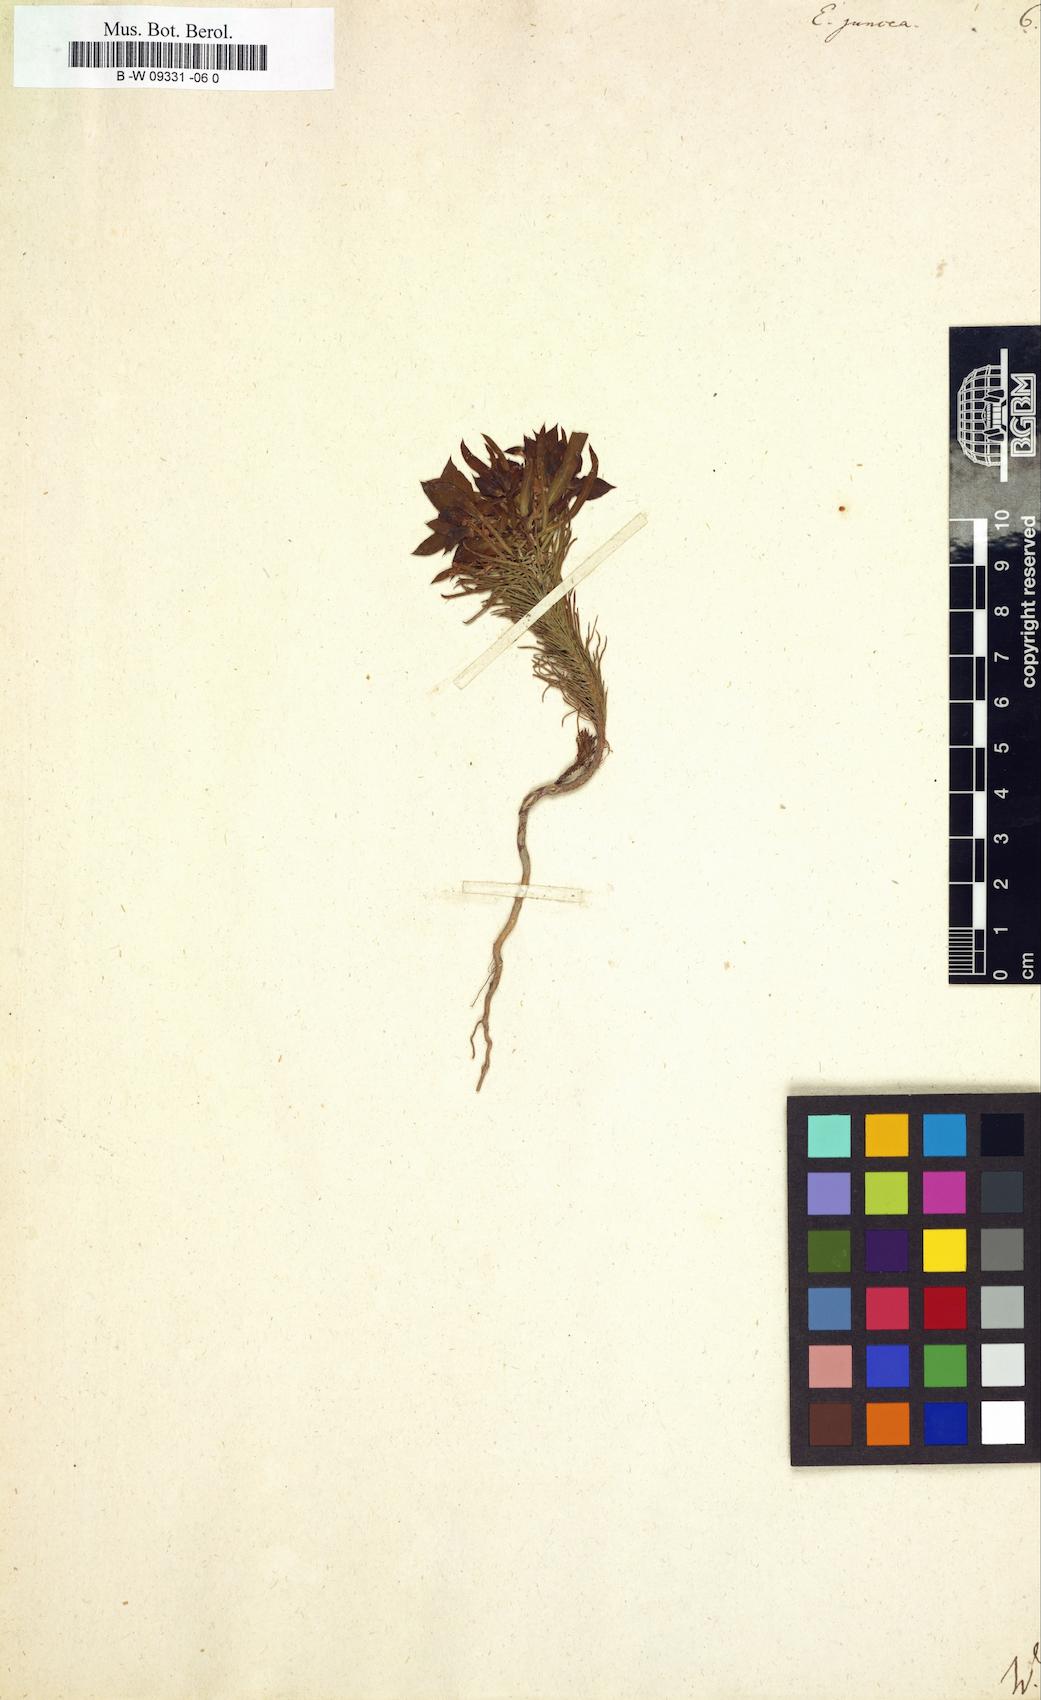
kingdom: Plantae
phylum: Tracheophyta
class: Magnoliopsida
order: Malpighiales
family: Euphorbiaceae
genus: Euphorbia
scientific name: Euphorbia aleppica
